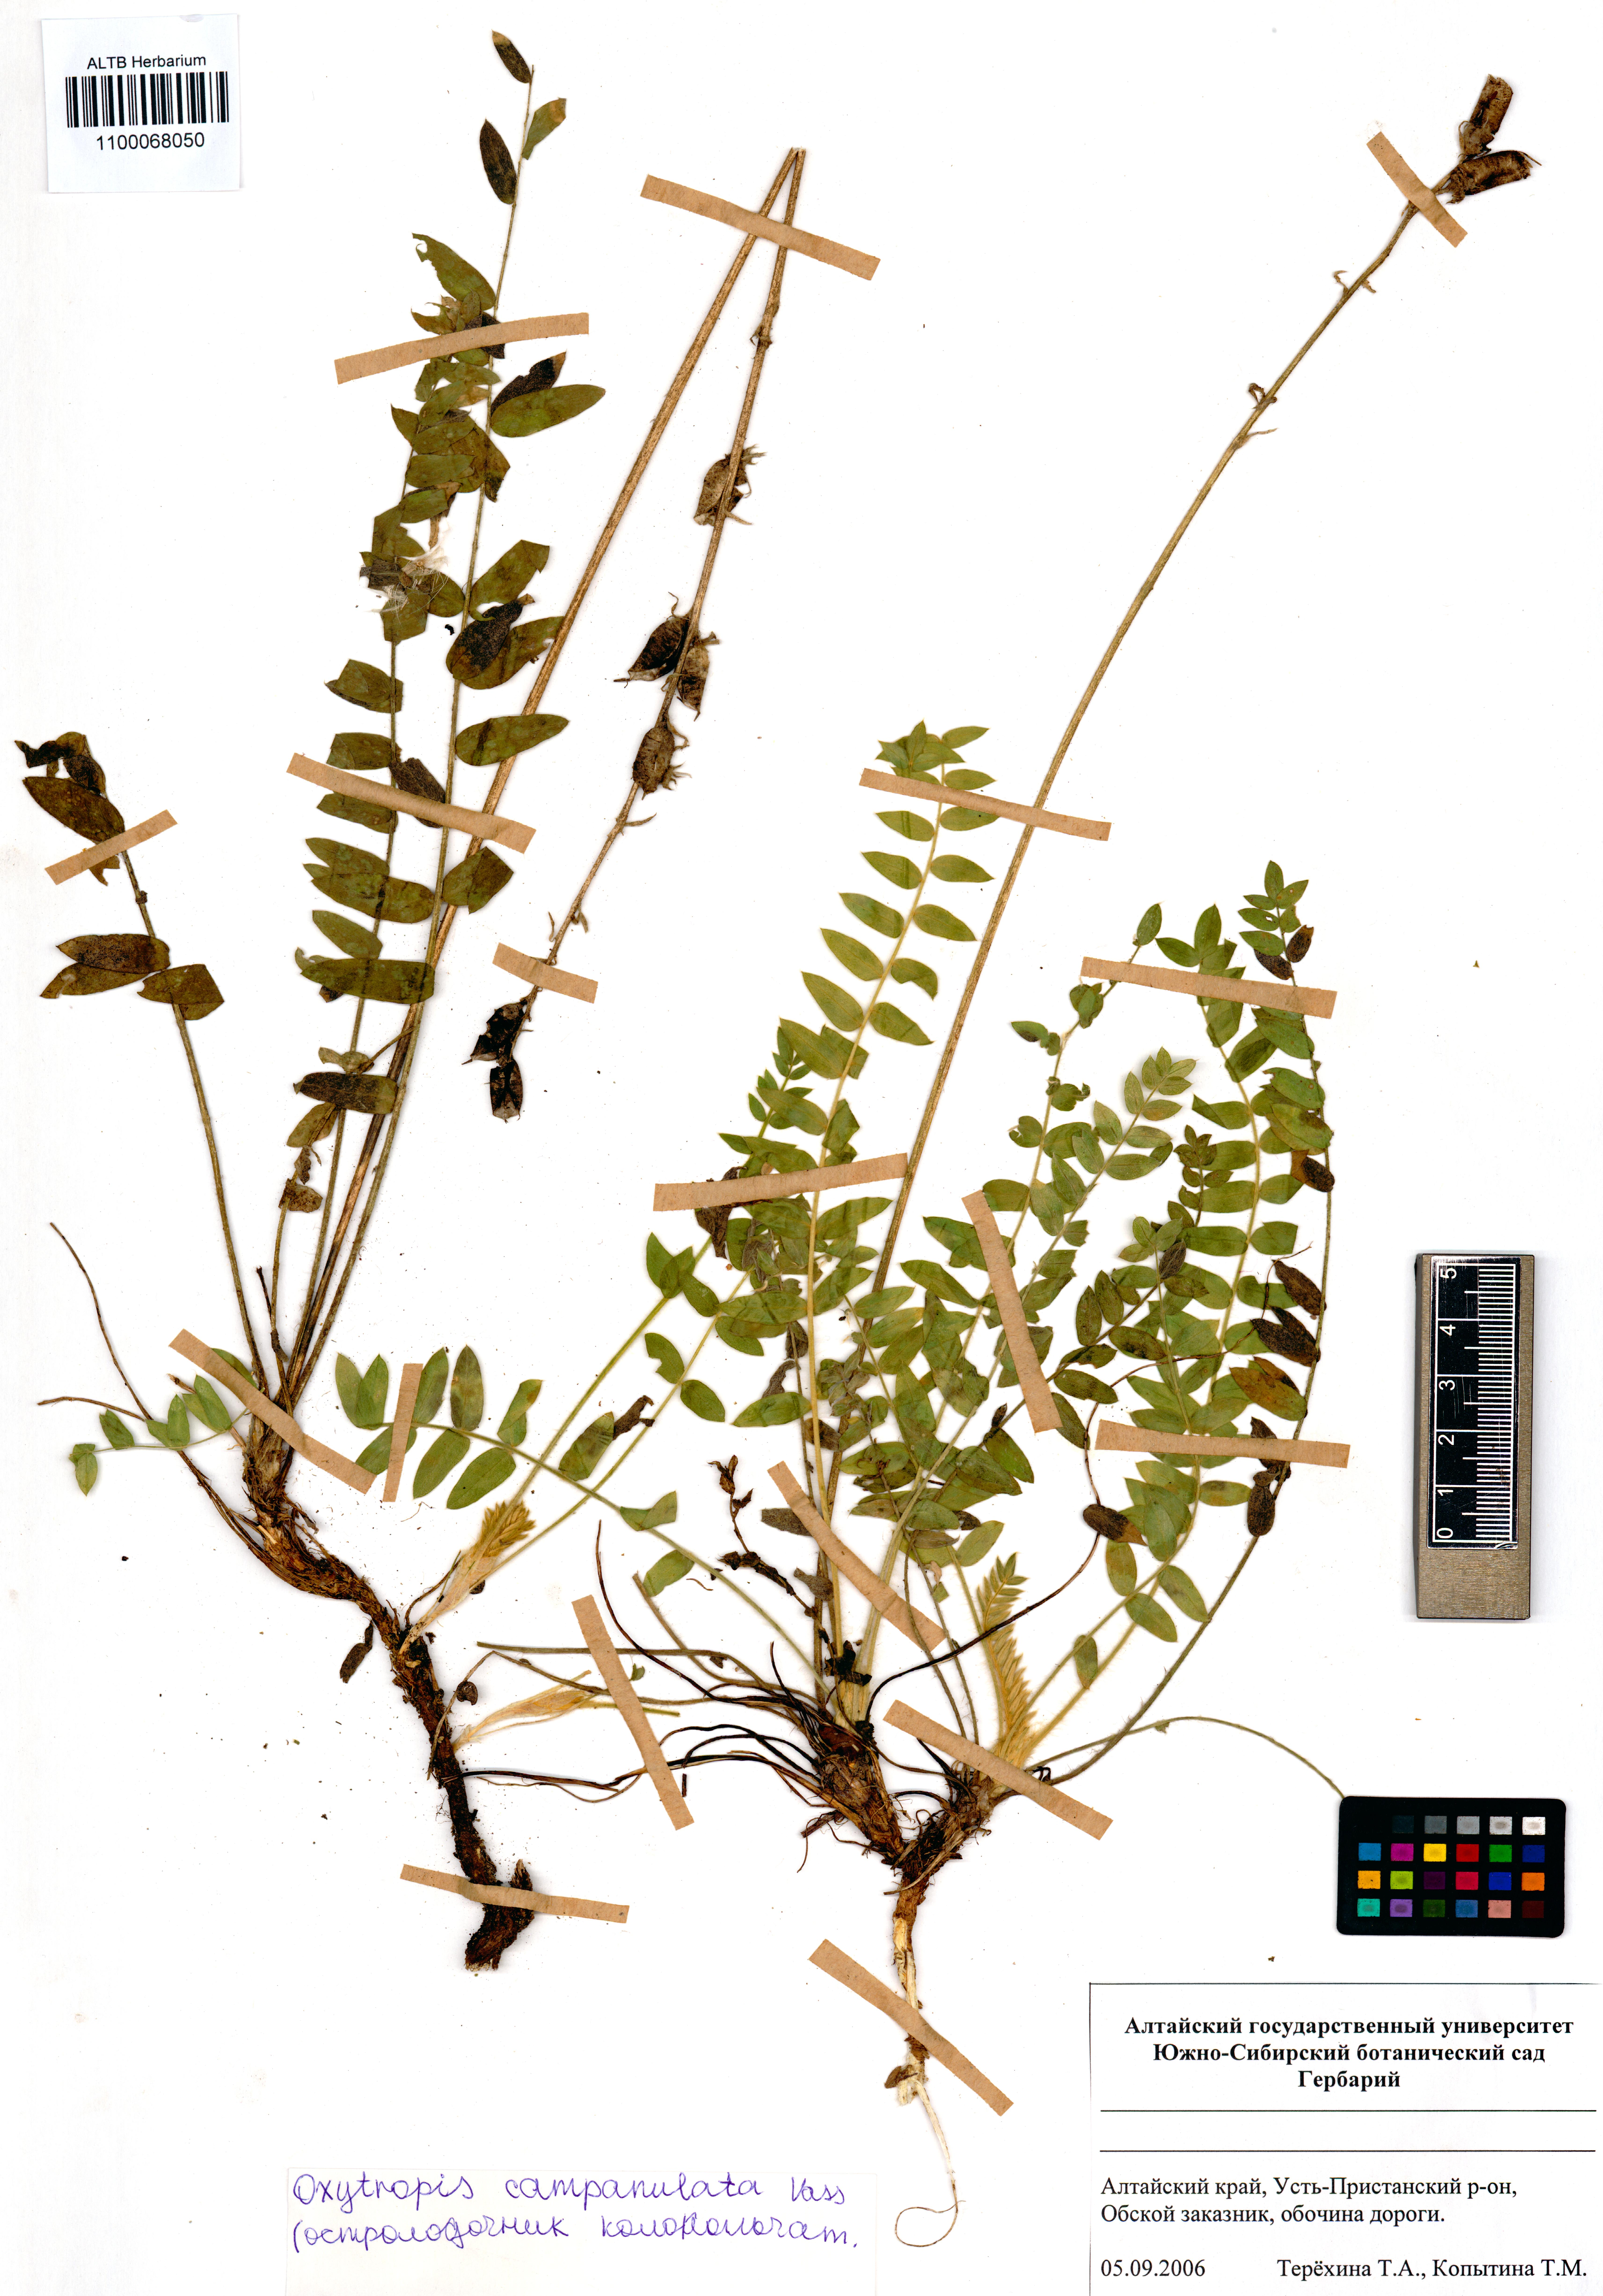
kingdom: Plantae
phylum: Tracheophyta
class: Magnoliopsida
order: Fabales
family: Fabaceae
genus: Oxytropis
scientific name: Oxytropis campanulata
